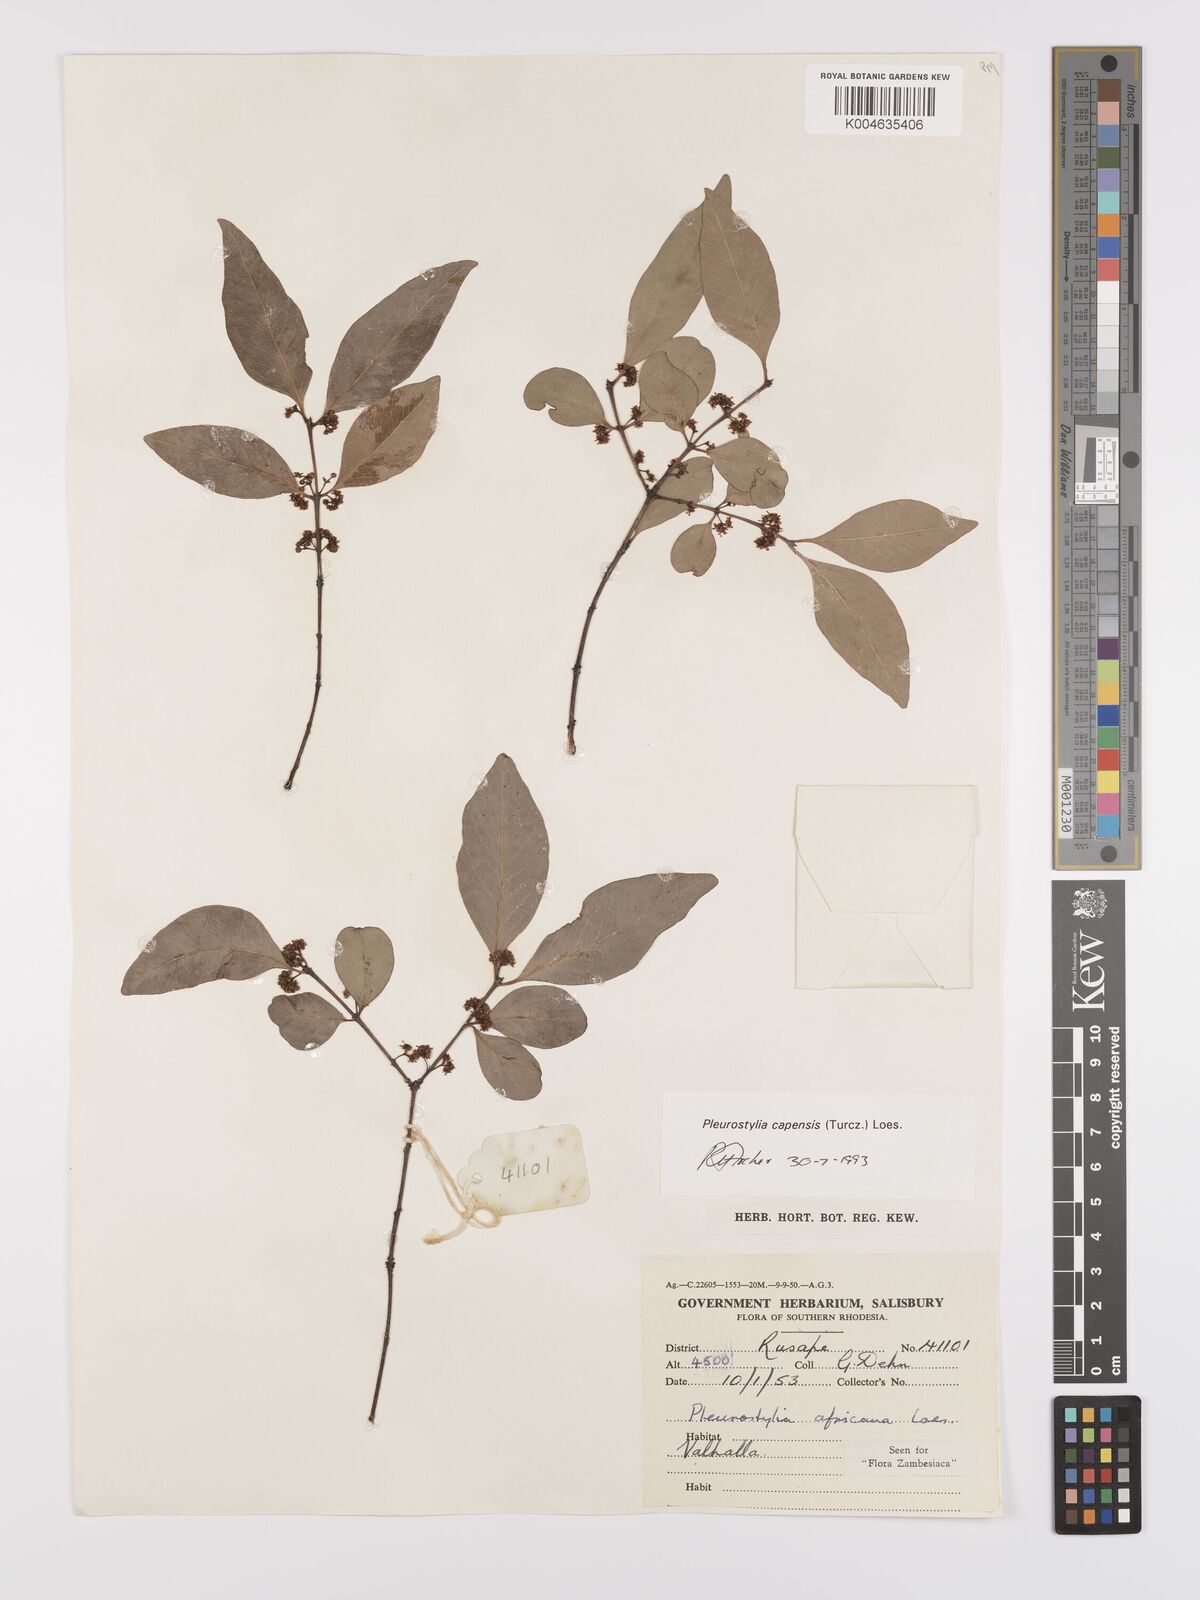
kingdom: Plantae
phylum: Tracheophyta
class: Magnoliopsida
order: Celastrales
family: Celastraceae
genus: Pleurostylia
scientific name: Pleurostylia africana
